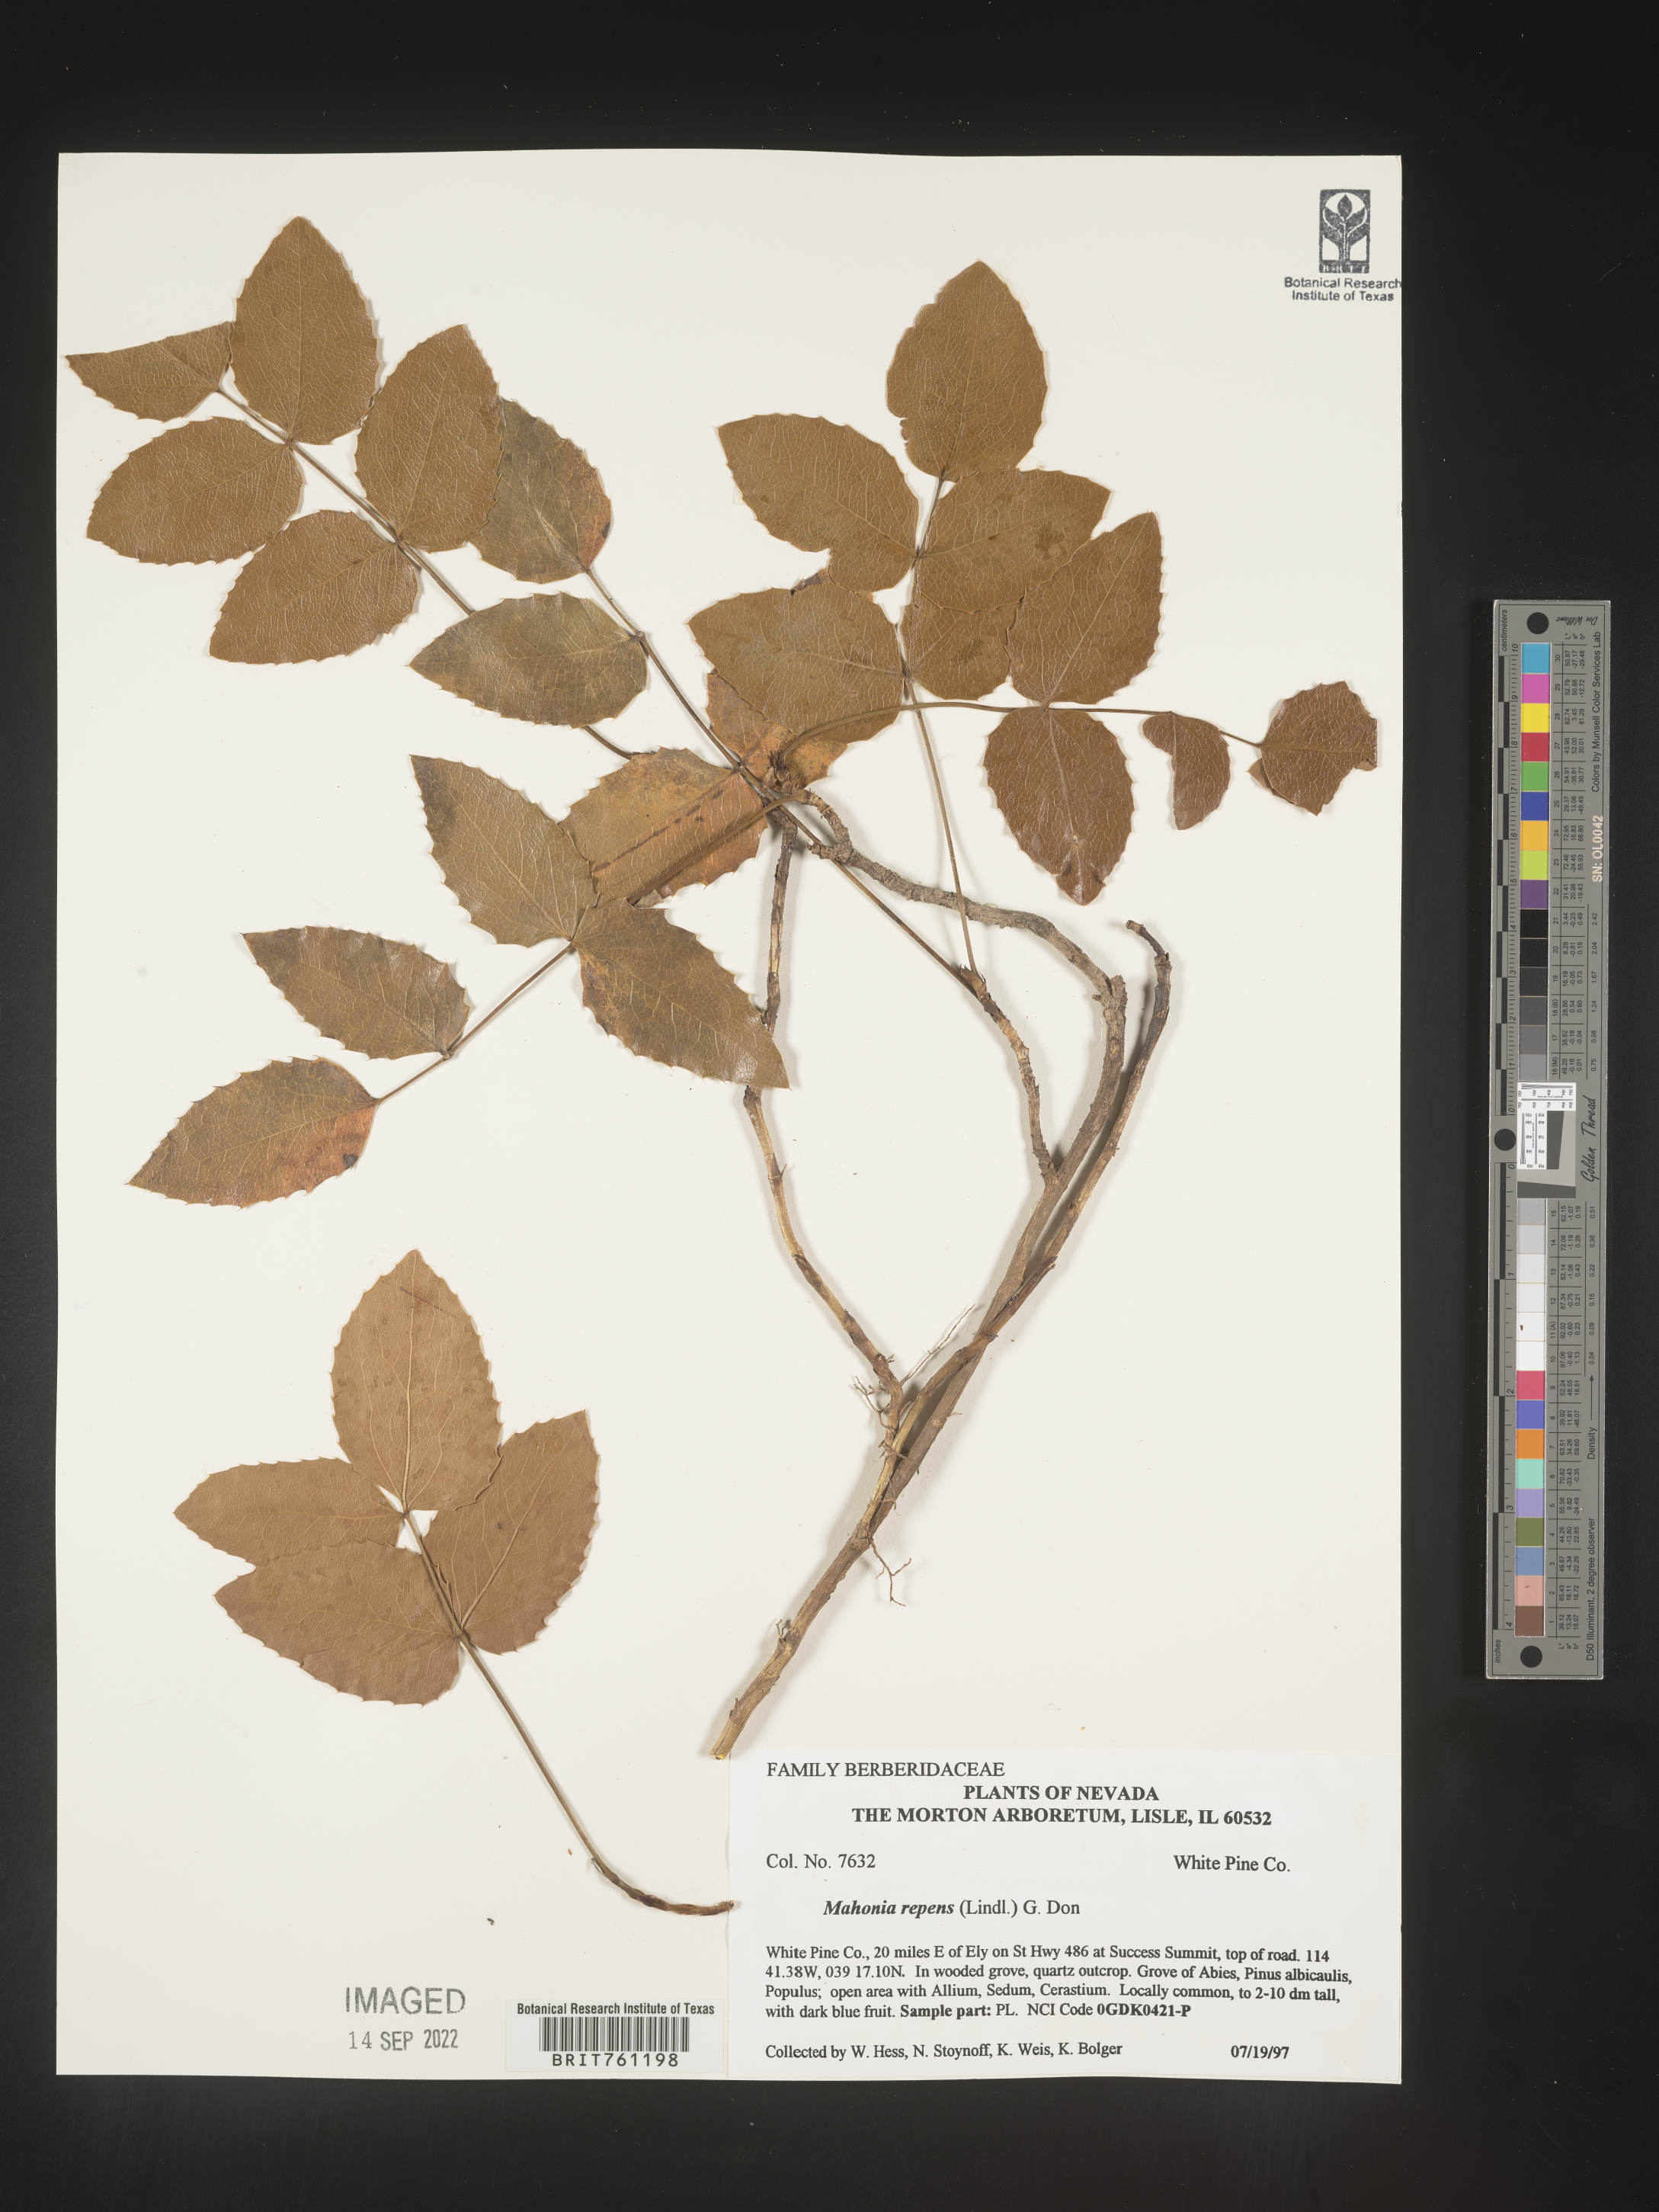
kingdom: Plantae
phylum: Tracheophyta
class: Magnoliopsida
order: Ranunculales
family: Berberidaceae
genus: Mahonia
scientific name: Mahonia repens
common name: Creeping oregon-grape
